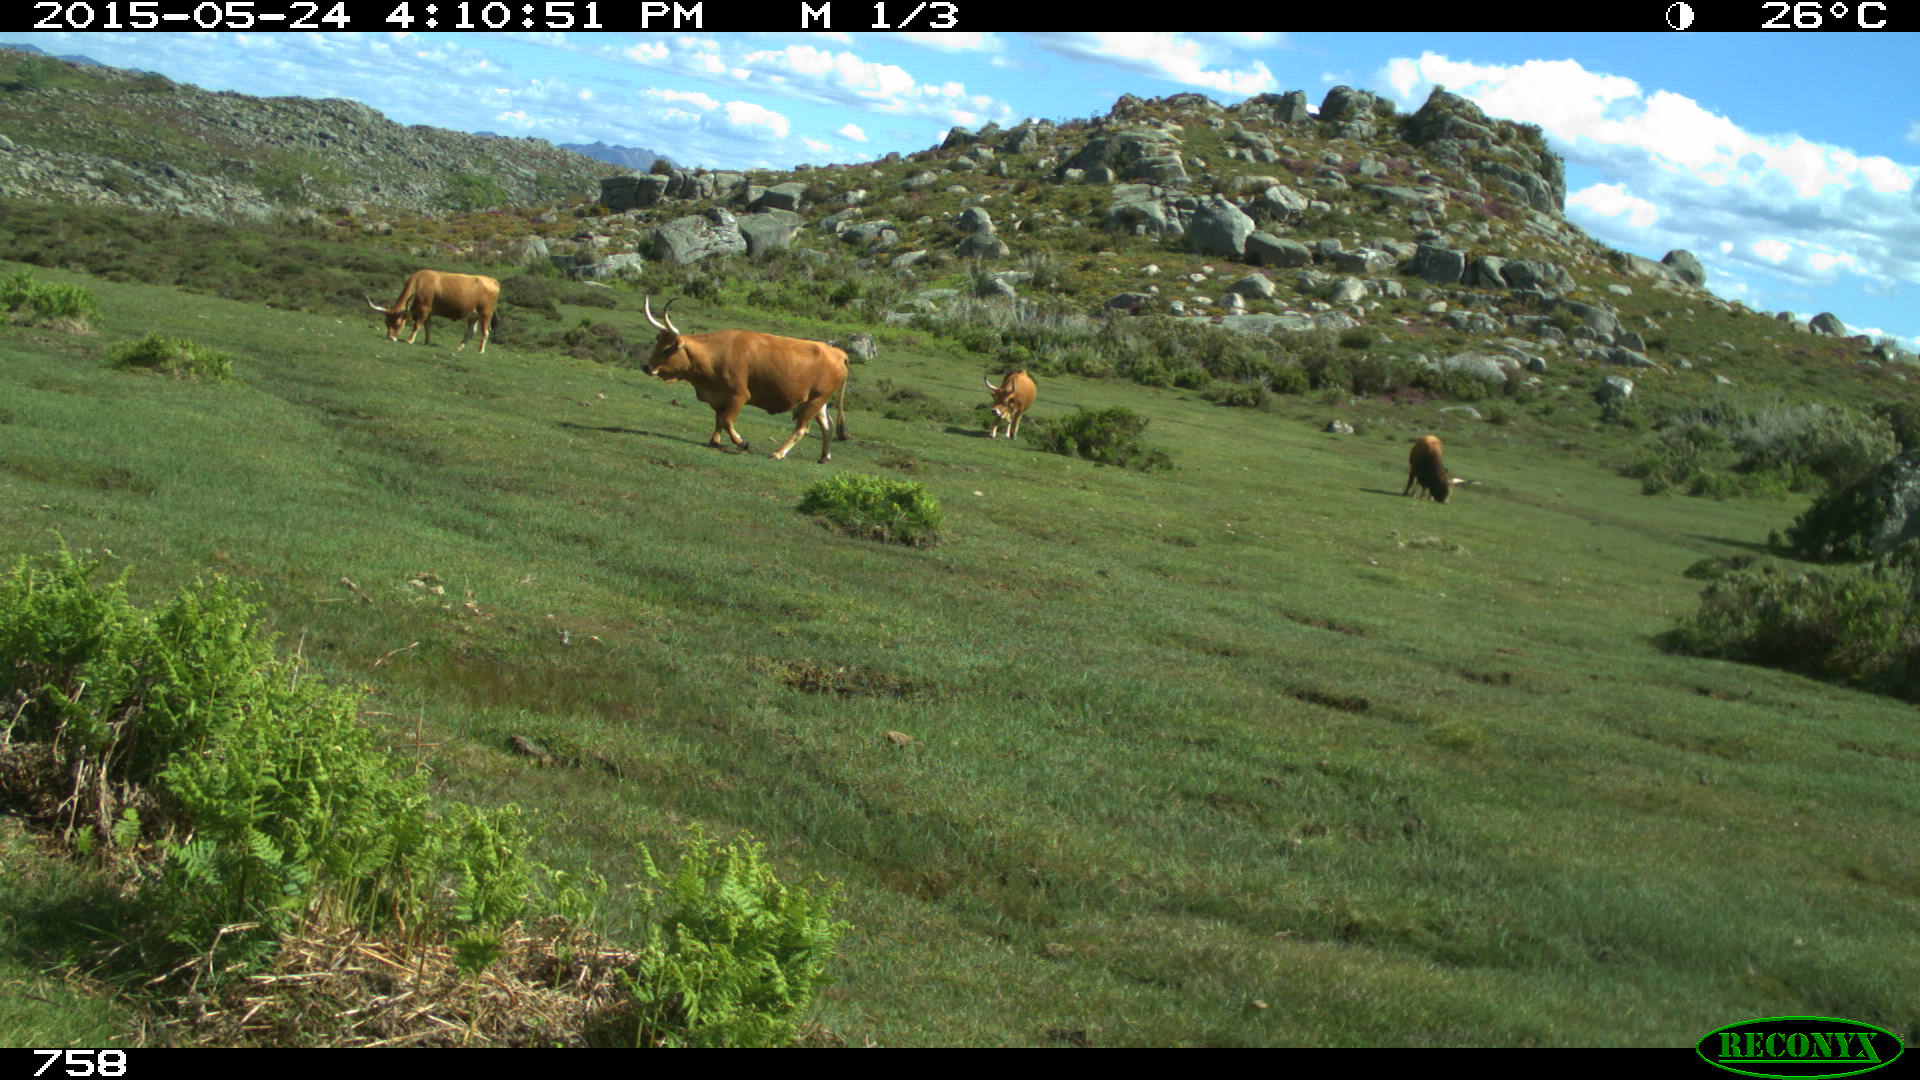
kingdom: Animalia
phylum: Chordata
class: Mammalia
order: Artiodactyla
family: Bovidae
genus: Bos
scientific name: Bos taurus
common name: Domesticated cattle
